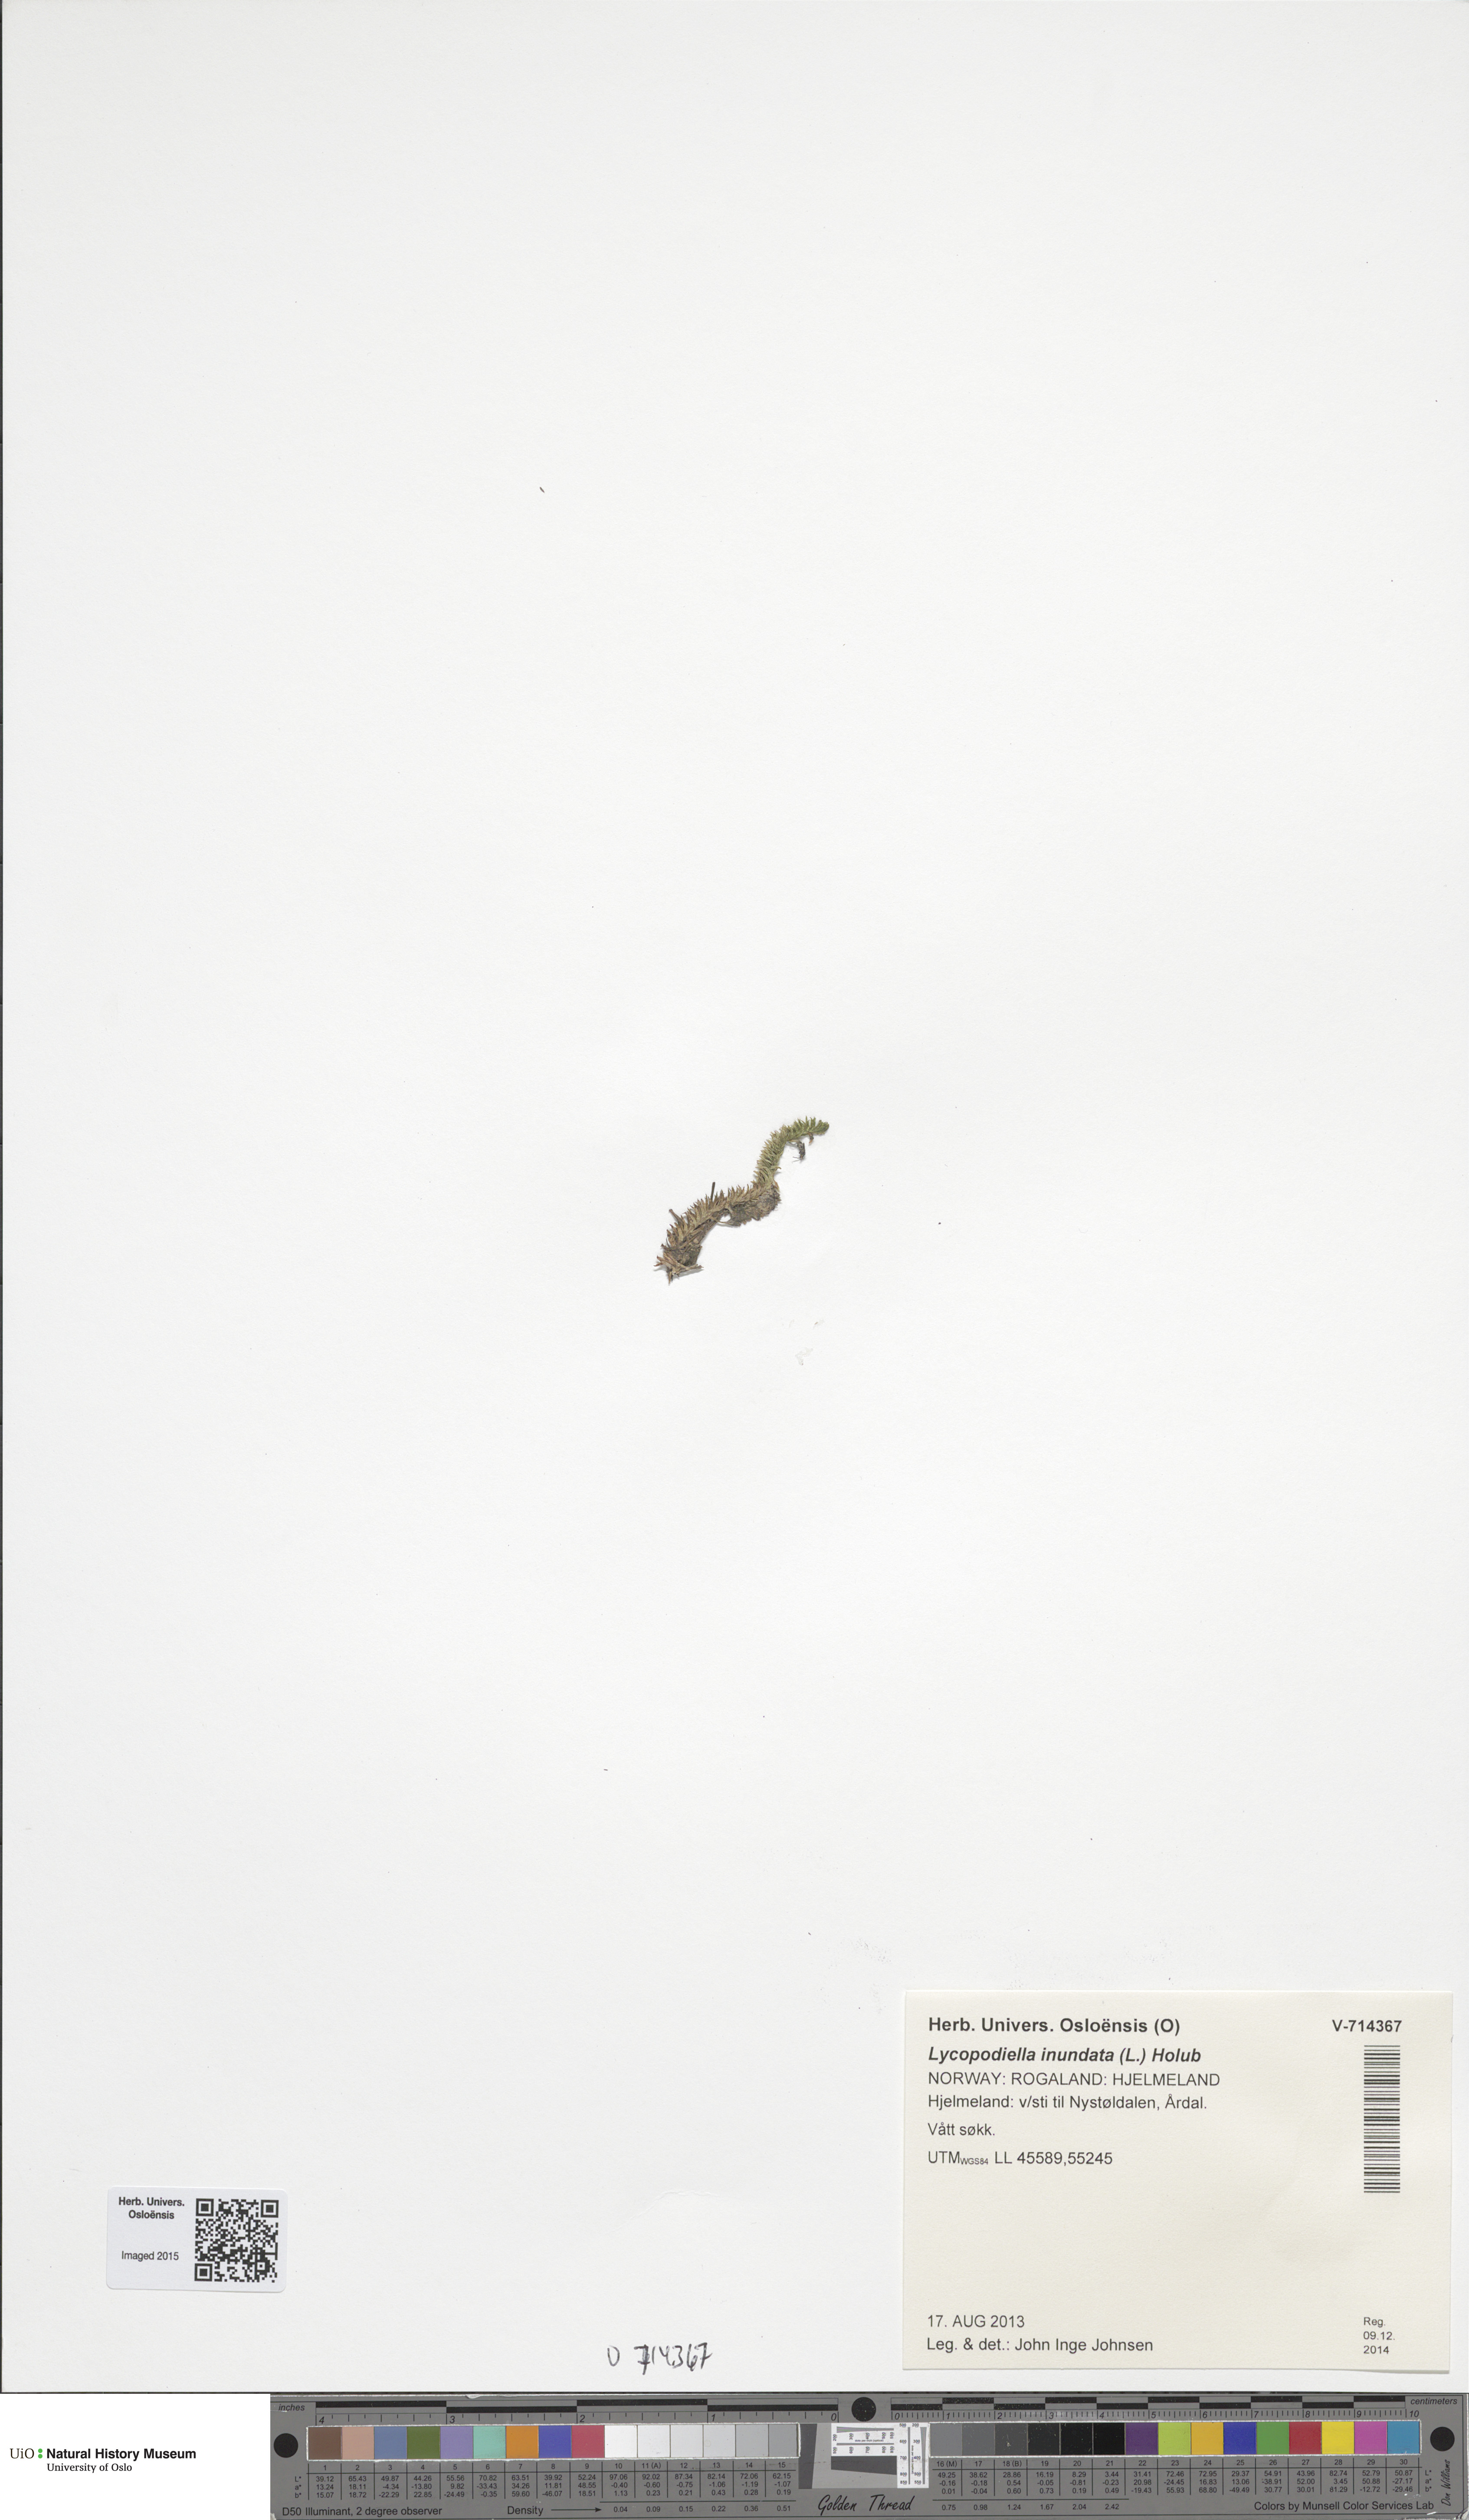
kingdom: Plantae
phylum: Tracheophyta
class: Lycopodiopsida
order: Lycopodiales
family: Lycopodiaceae
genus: Lycopodiella
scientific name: Lycopodiella inundata
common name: Marsh clubmoss
